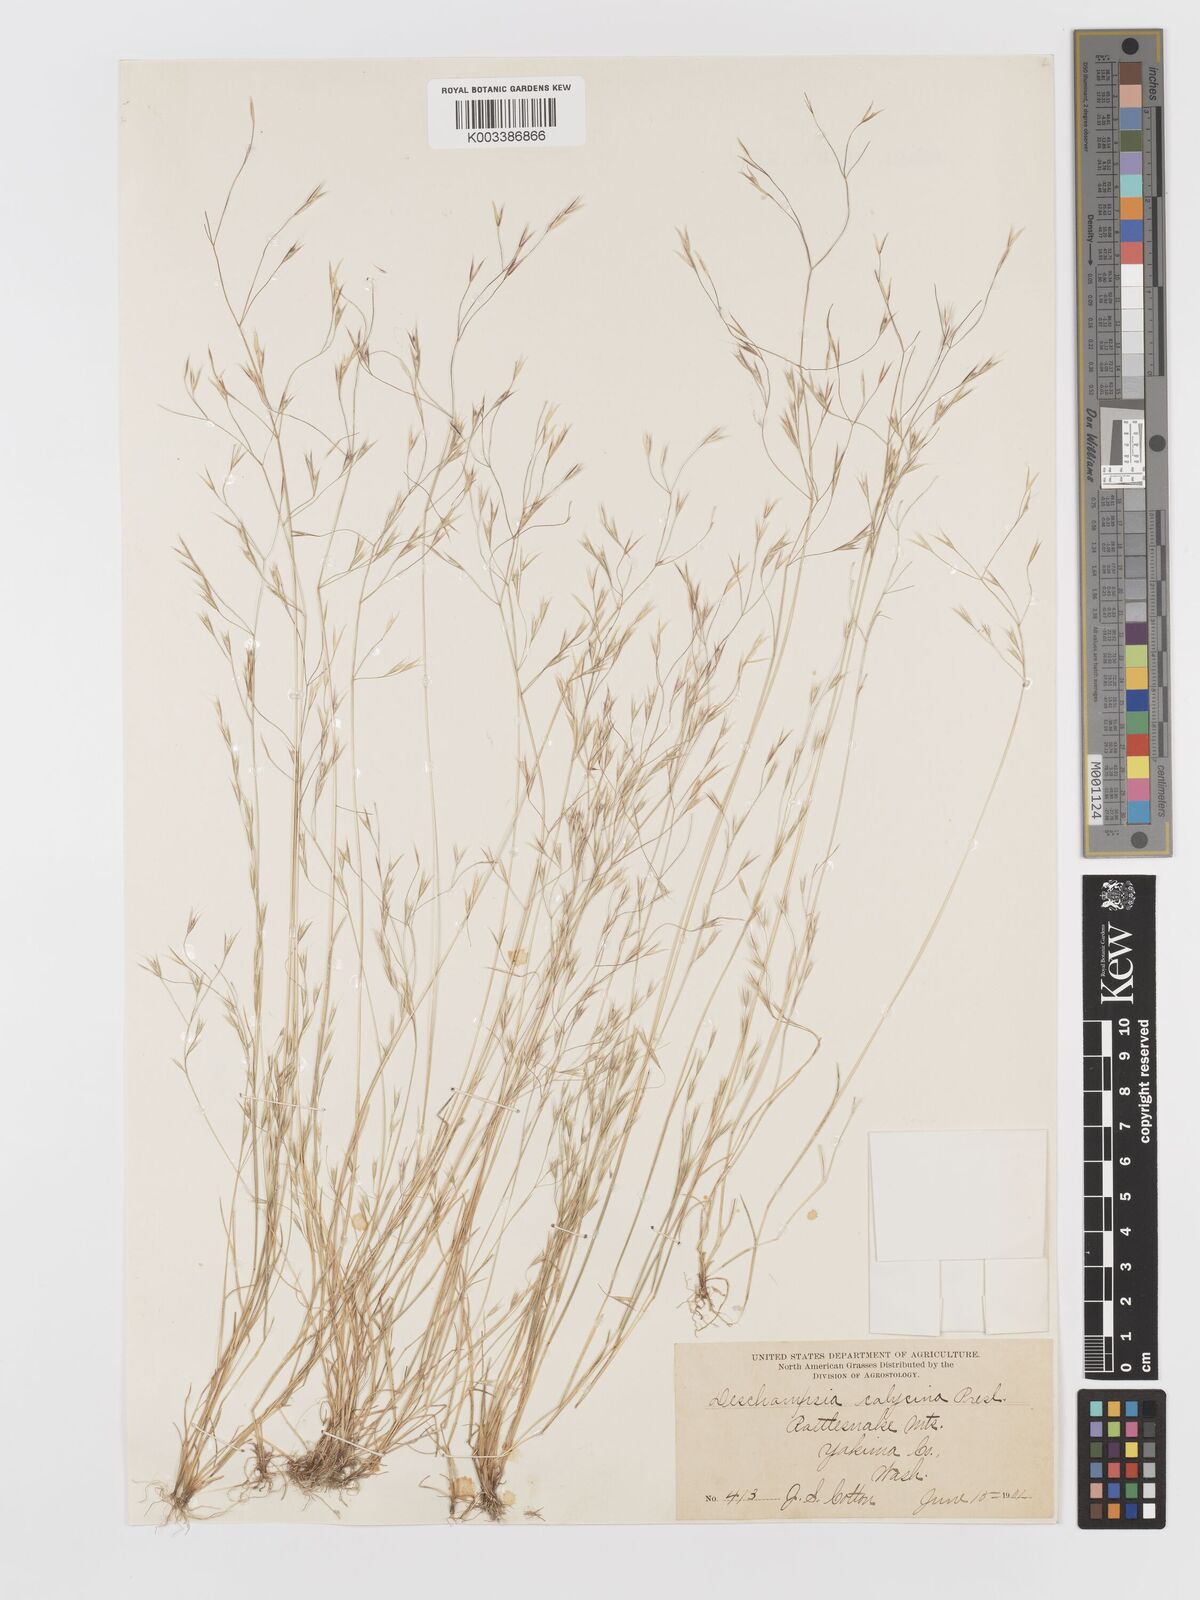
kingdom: Plantae
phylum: Tracheophyta
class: Liliopsida
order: Poales
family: Poaceae
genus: Deschampsia
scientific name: Deschampsia danthonioides
